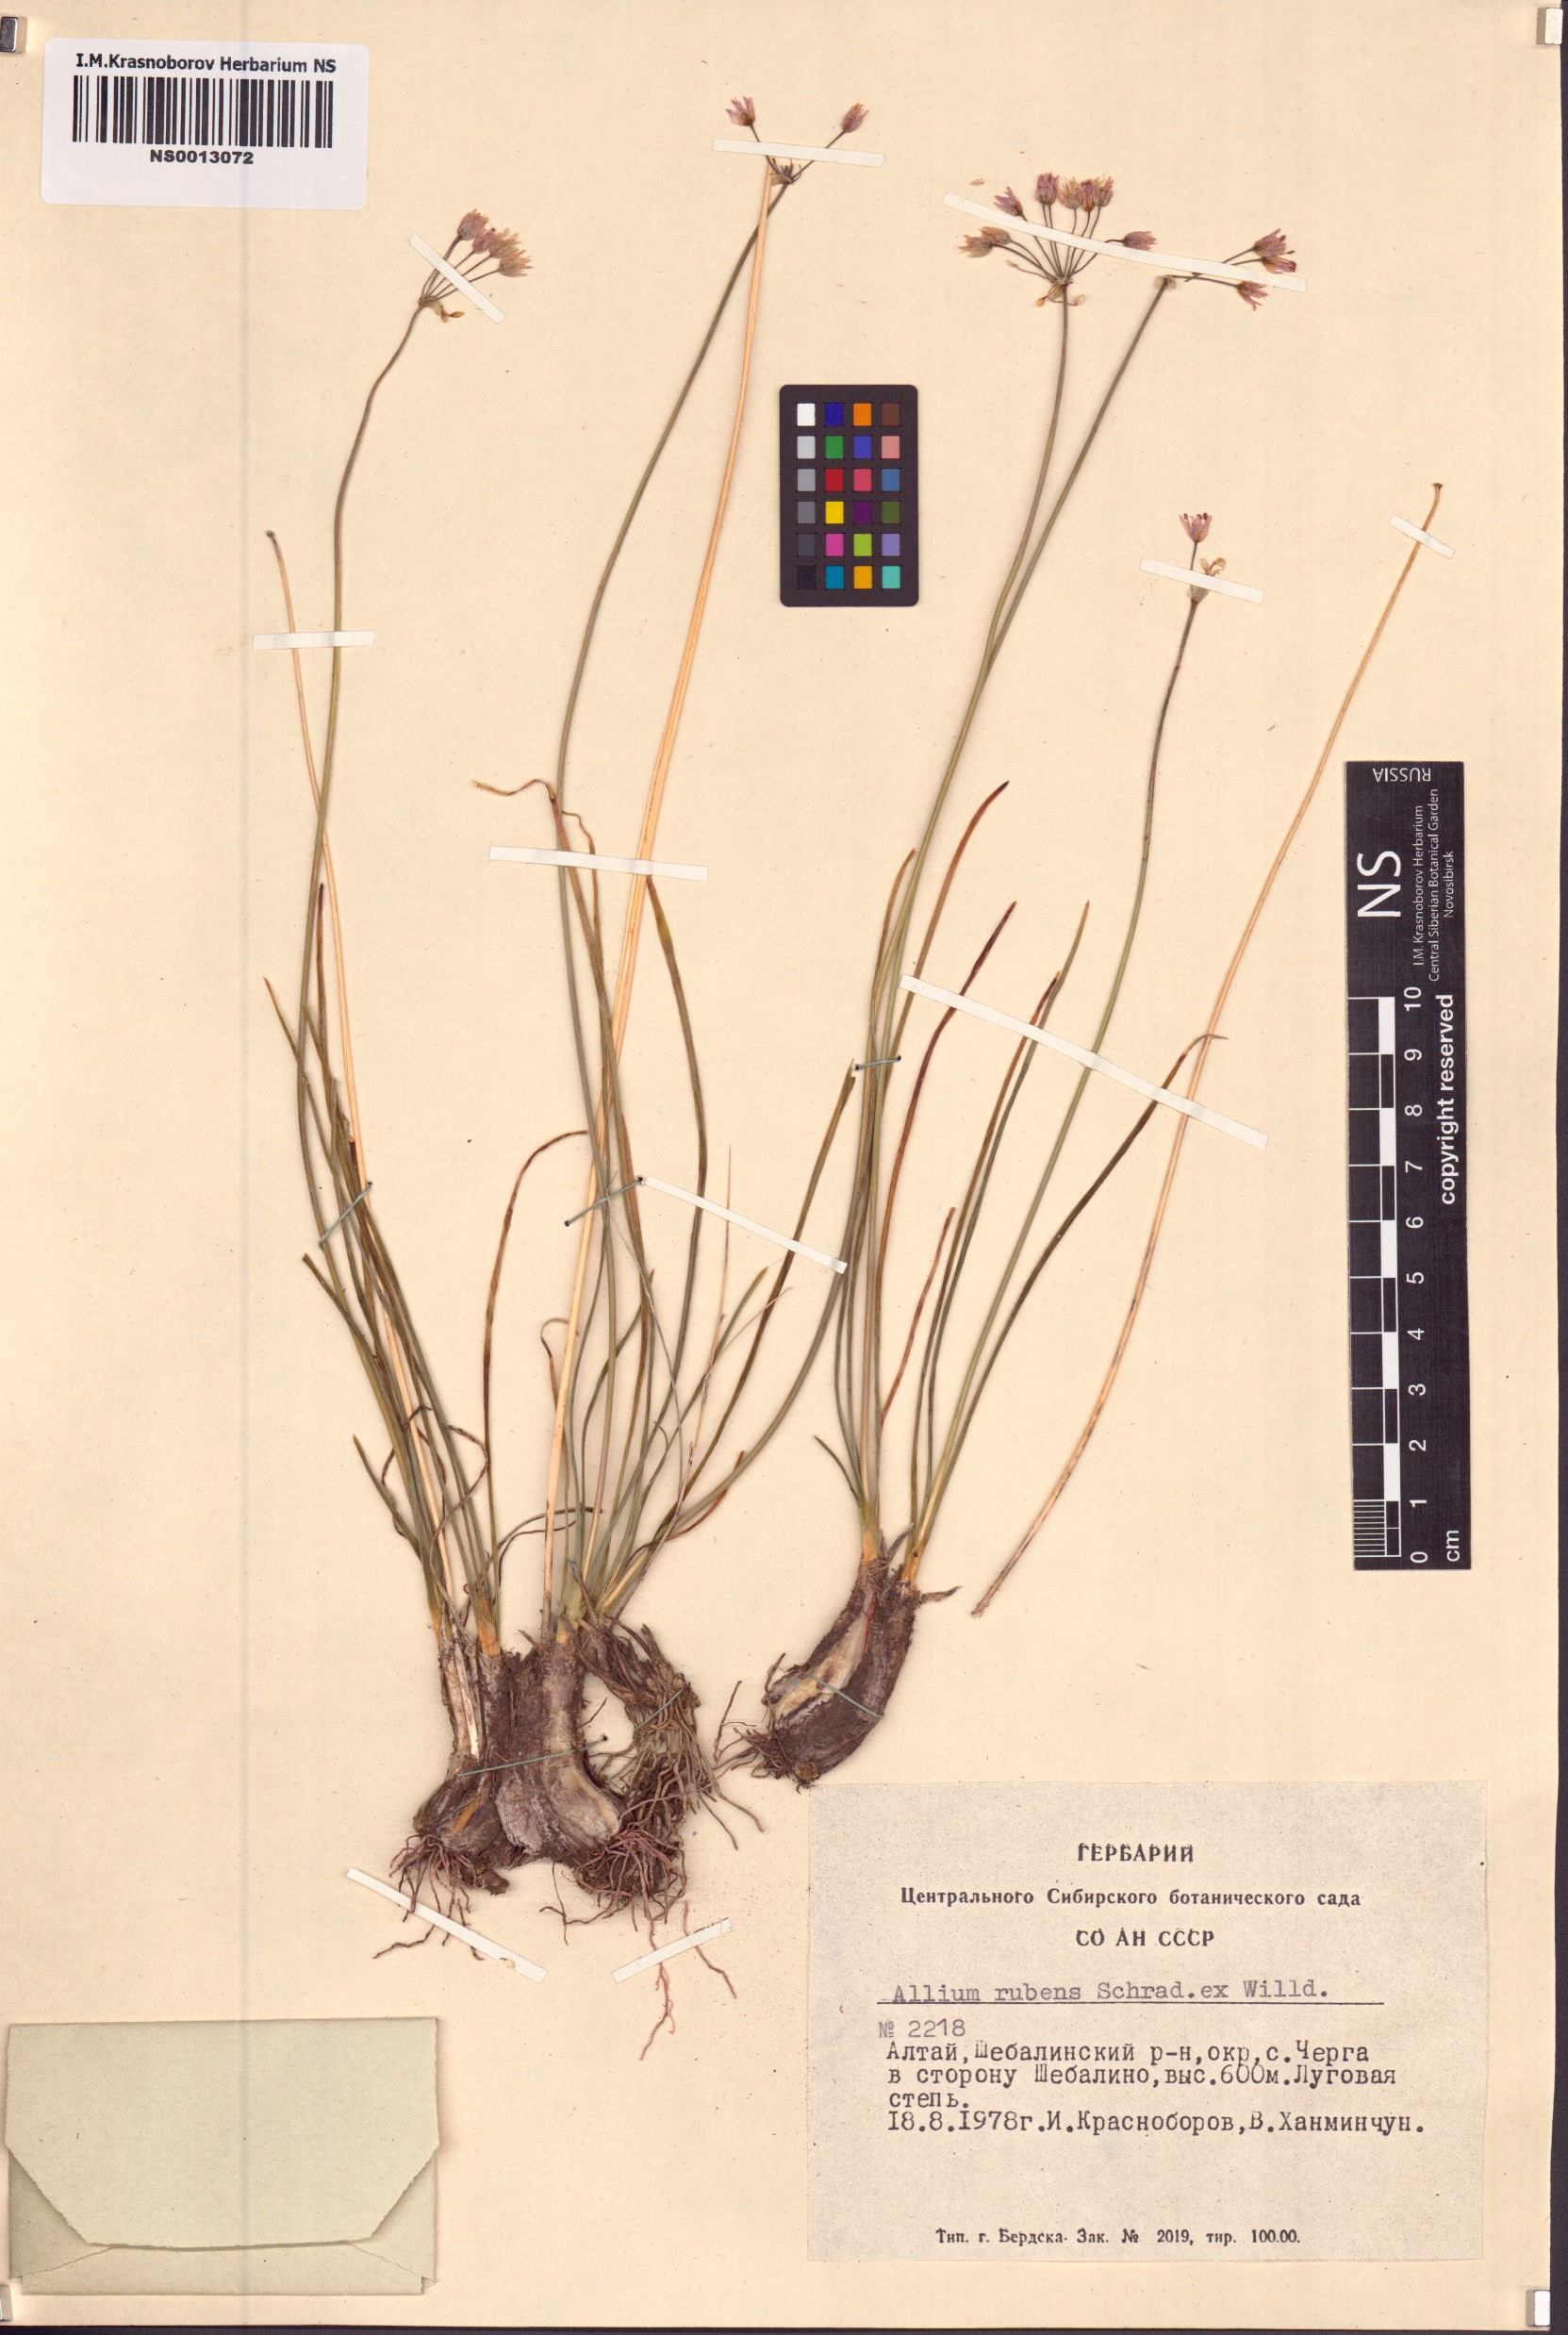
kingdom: Plantae
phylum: Tracheophyta
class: Liliopsida
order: Asparagales
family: Amaryllidaceae
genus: Allium
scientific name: Allium rubens
